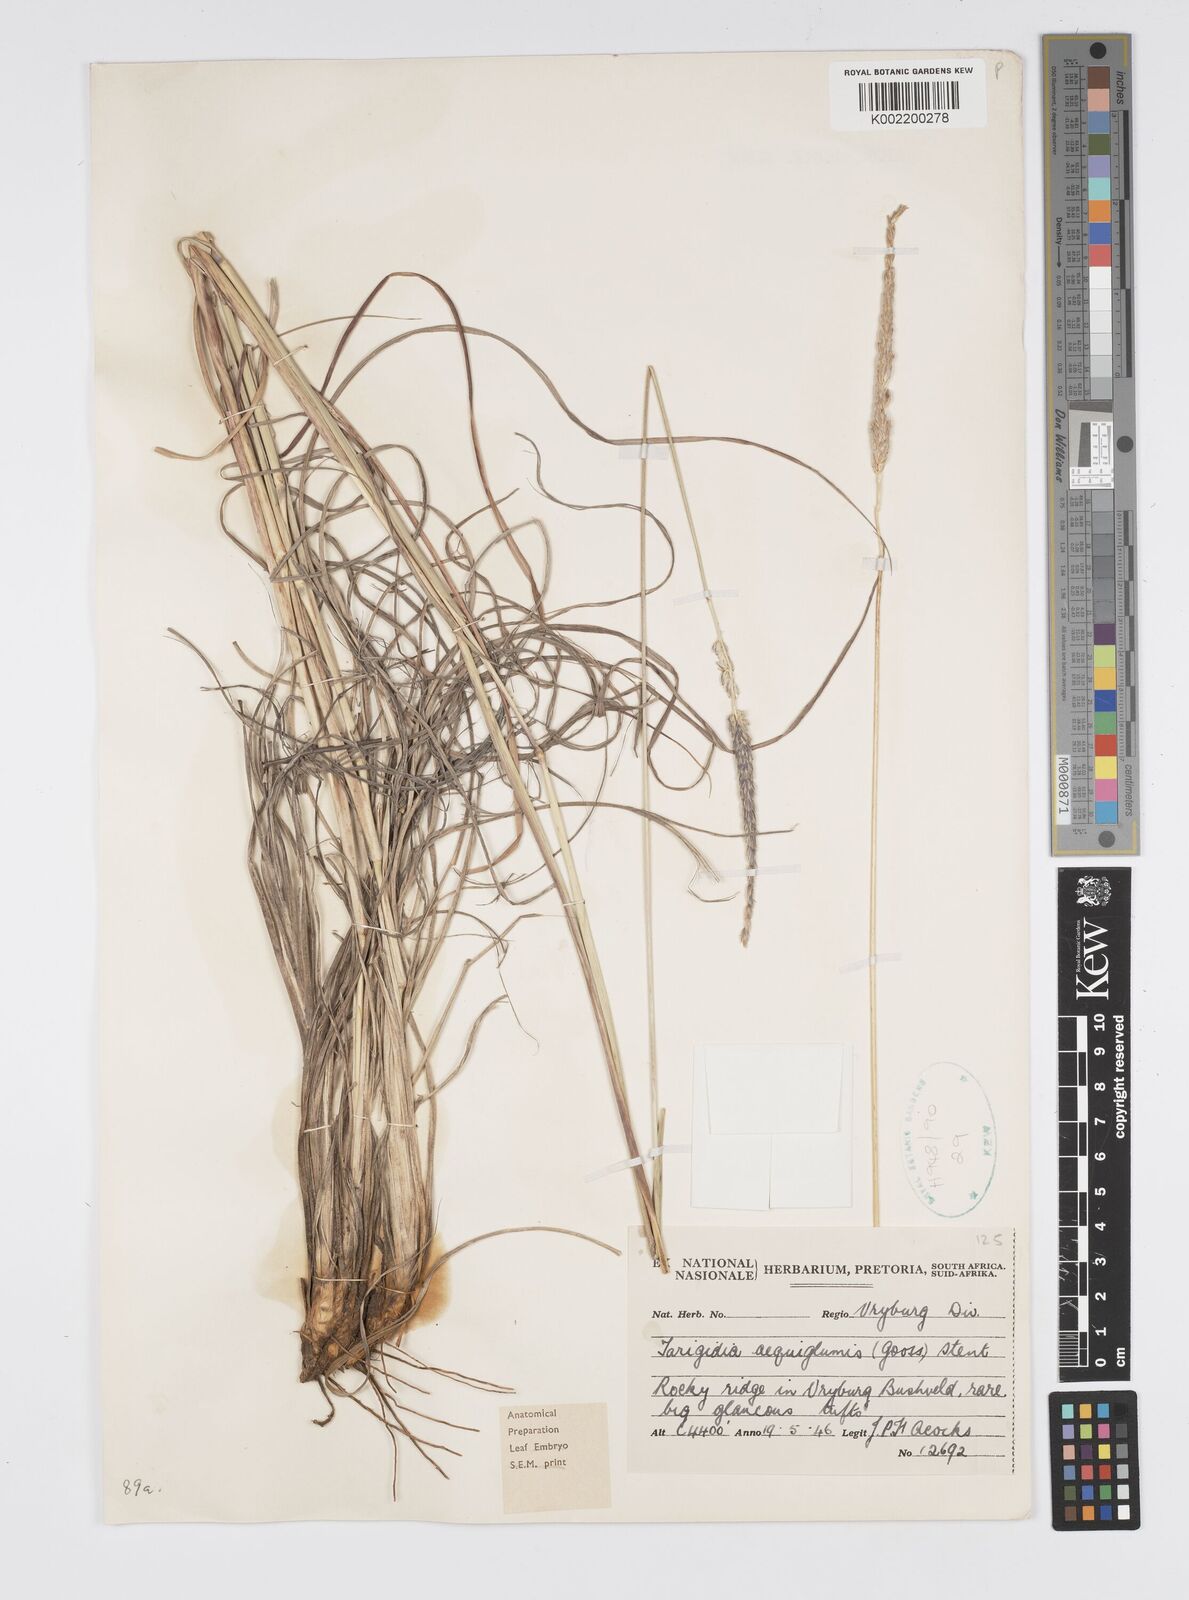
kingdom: Plantae
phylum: Tracheophyta
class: Liliopsida
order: Poales
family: Poaceae
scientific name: Poaceae
